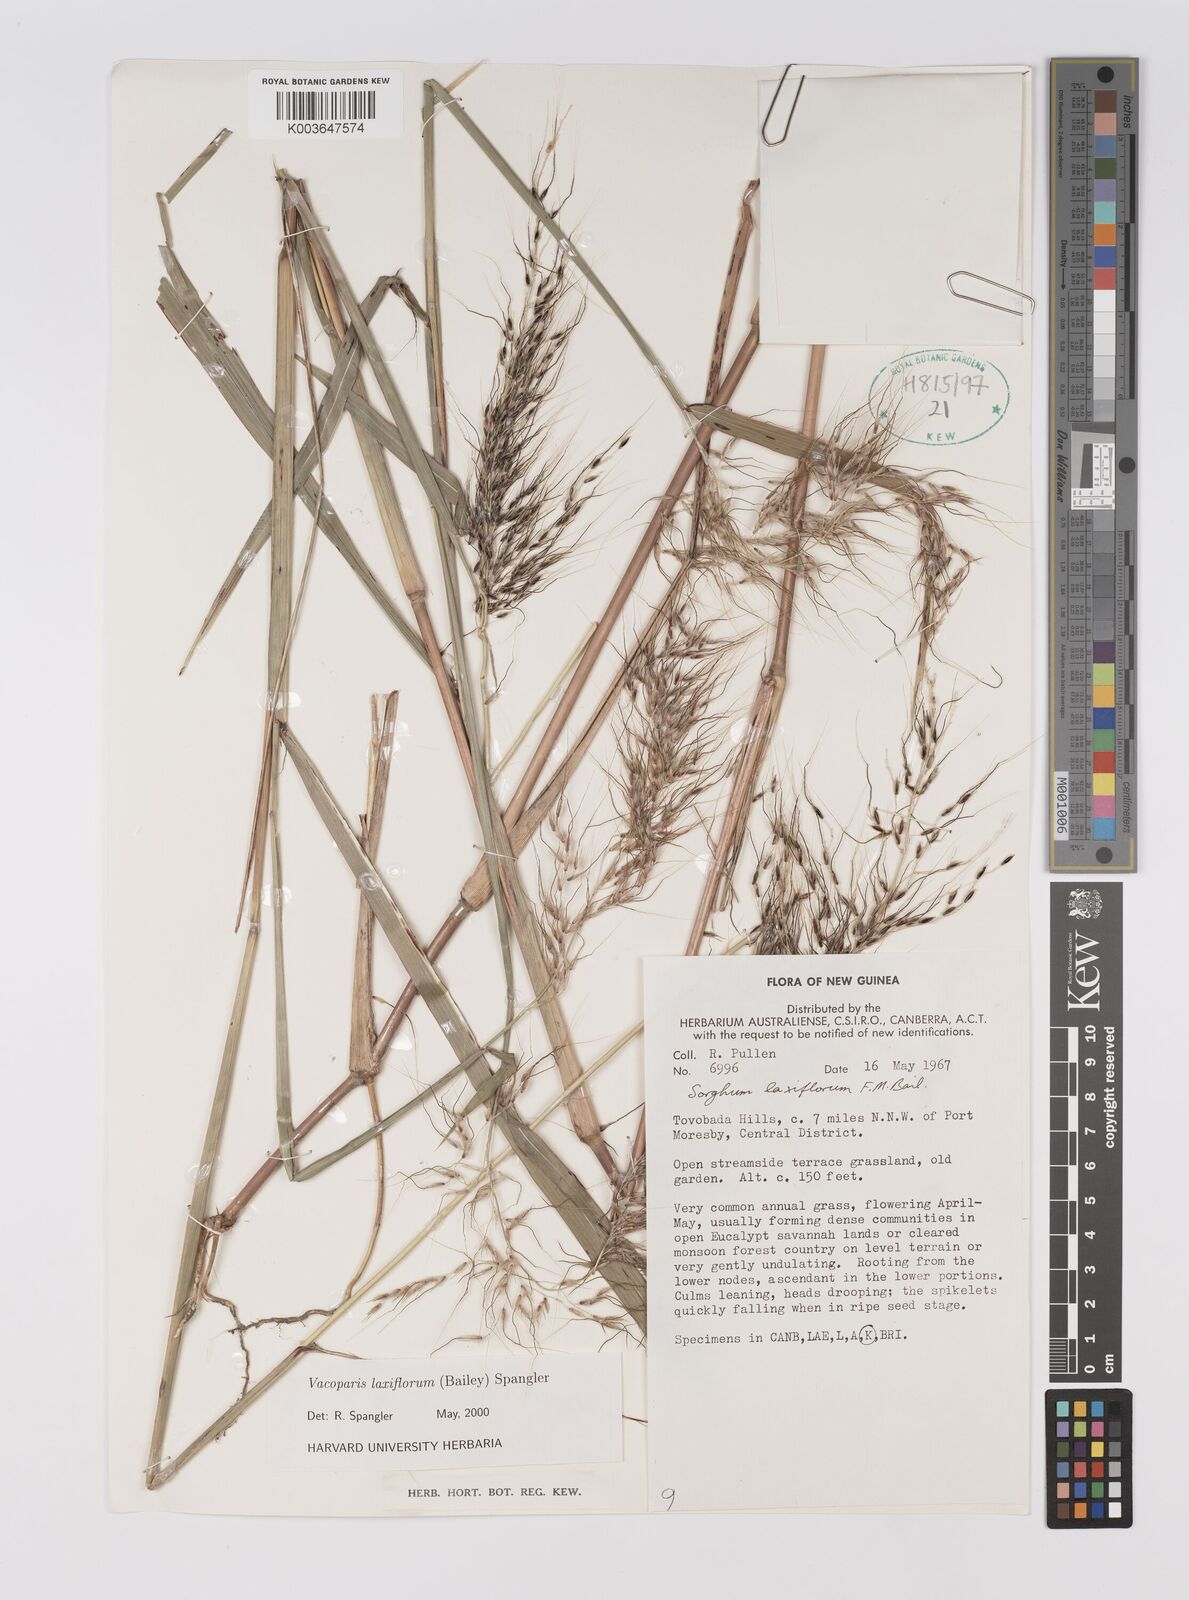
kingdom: Plantae
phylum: Tracheophyta
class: Liliopsida
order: Poales
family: Poaceae
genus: Sorghum
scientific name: Sorghum laxiflorum
